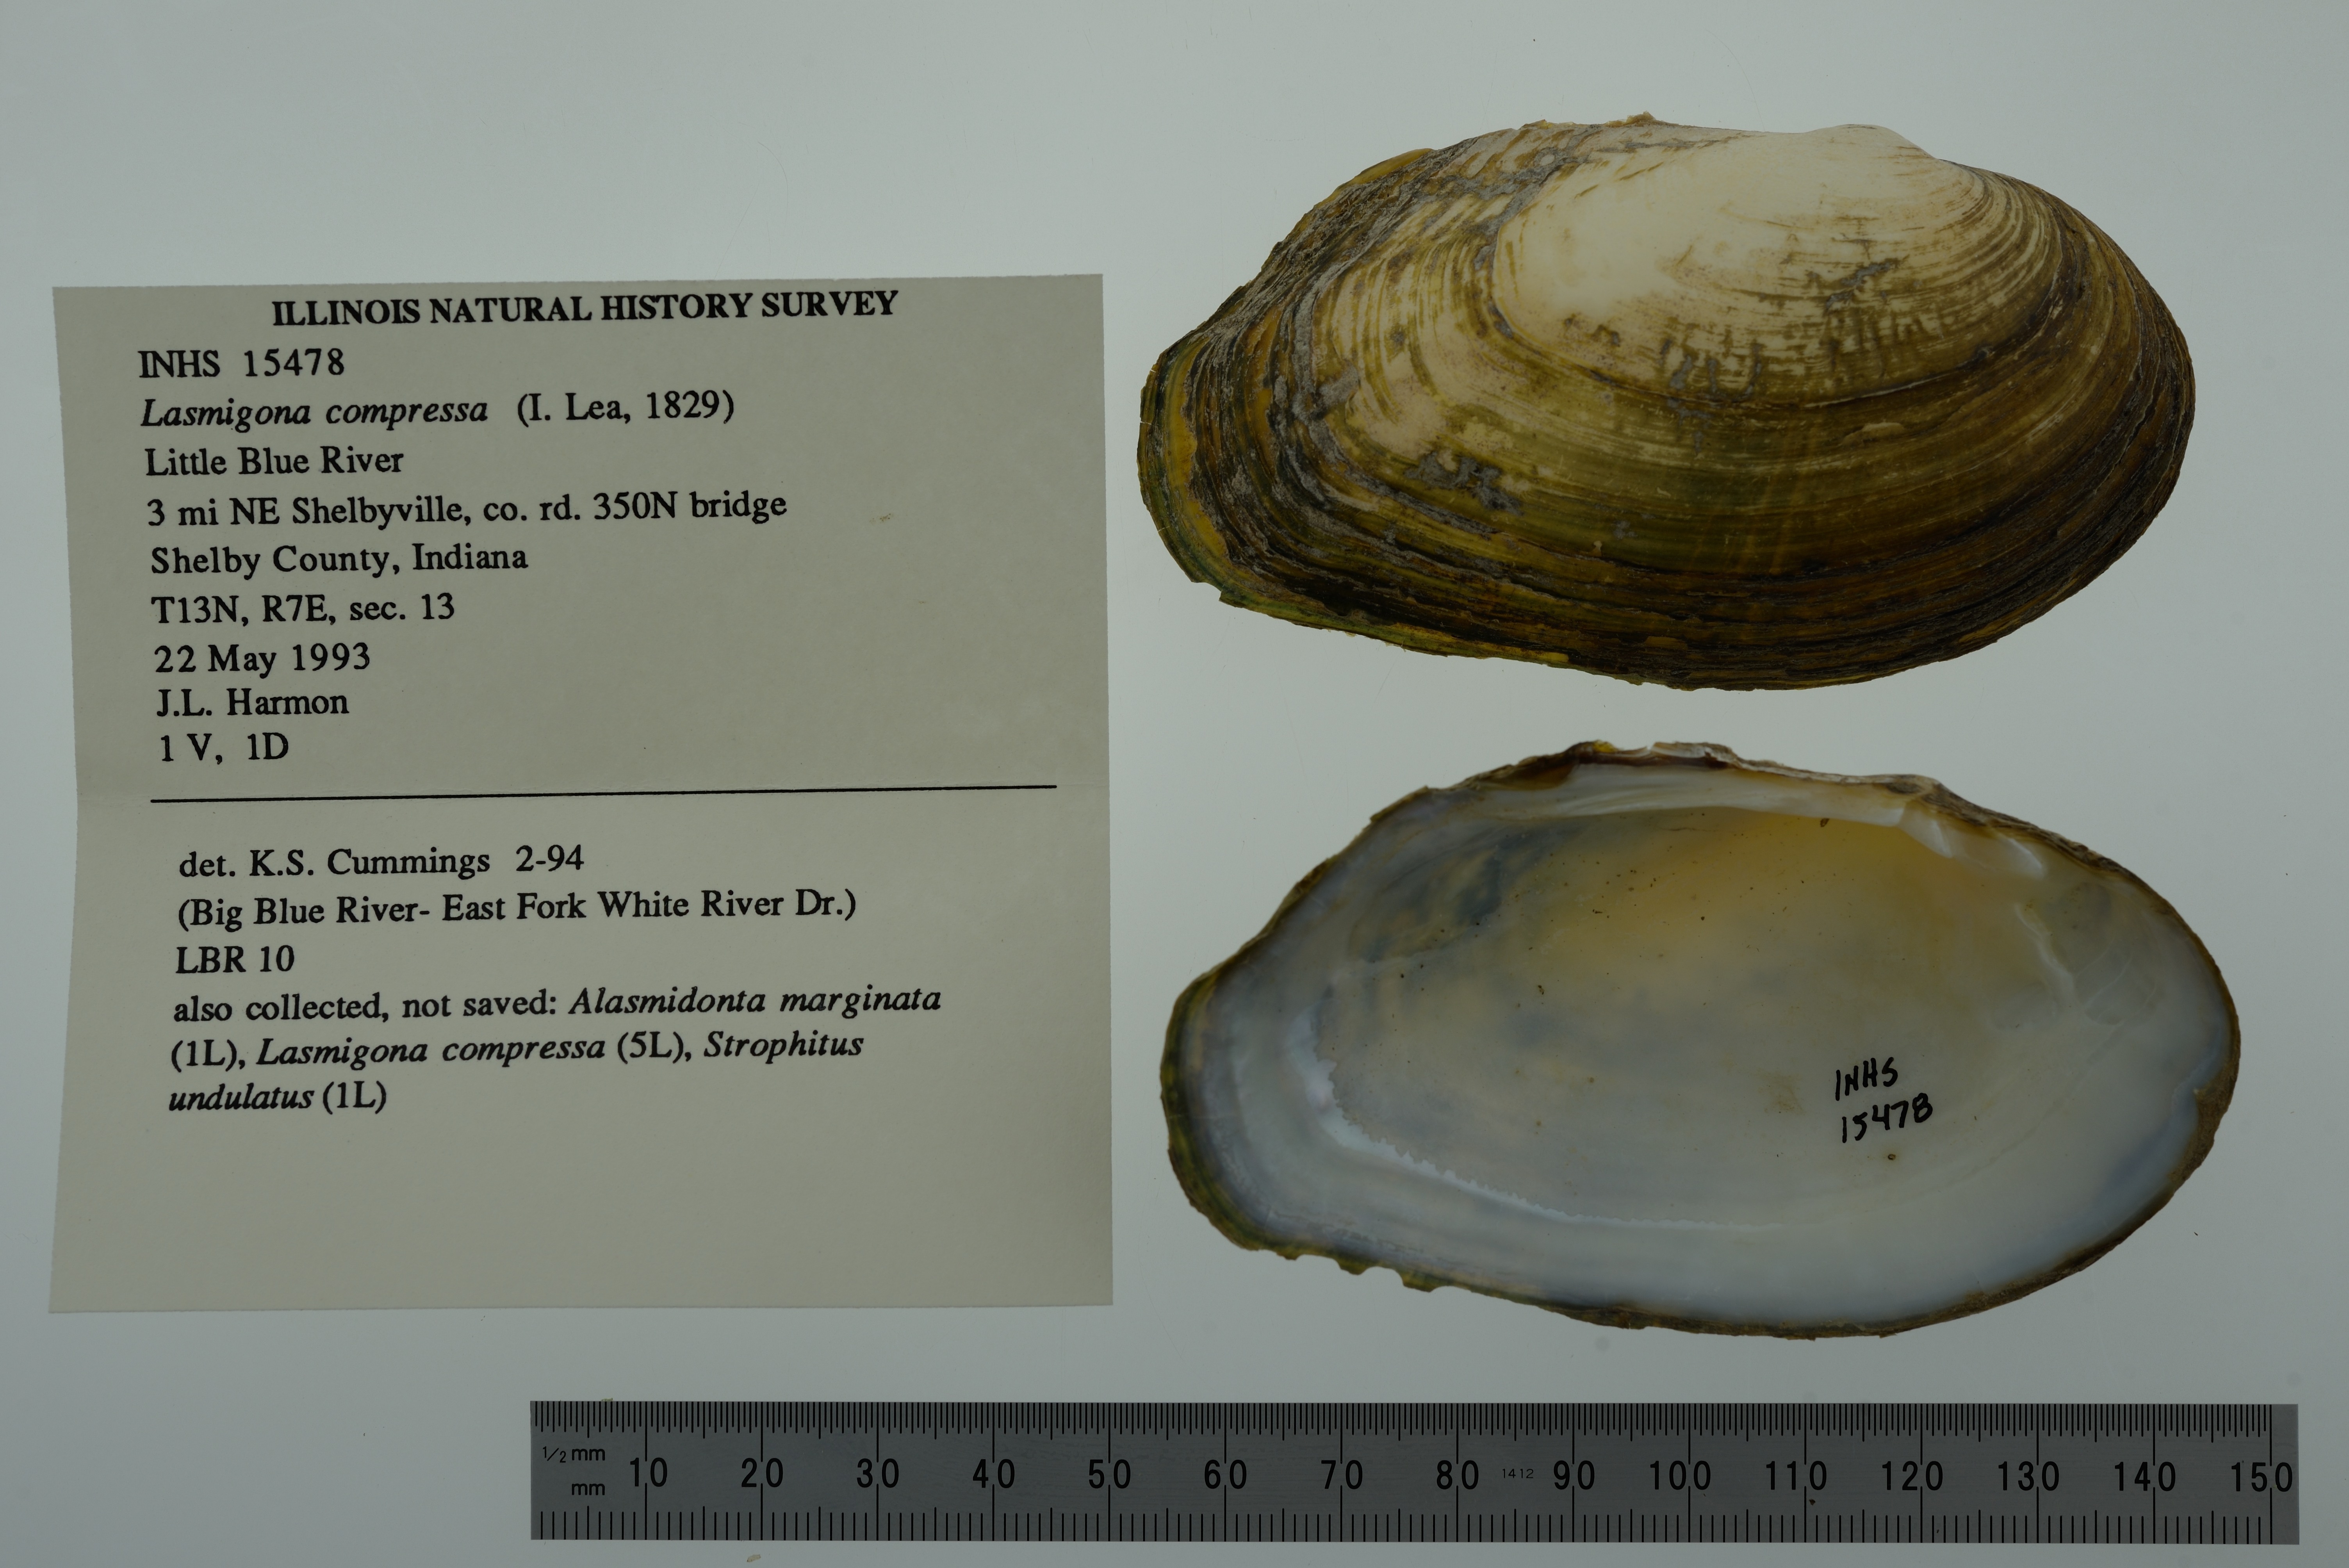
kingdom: Animalia
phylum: Mollusca
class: Bivalvia
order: Unionida
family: Unionidae
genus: Lasmigona
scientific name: Lasmigona compressa
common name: Creek heelsplitter
